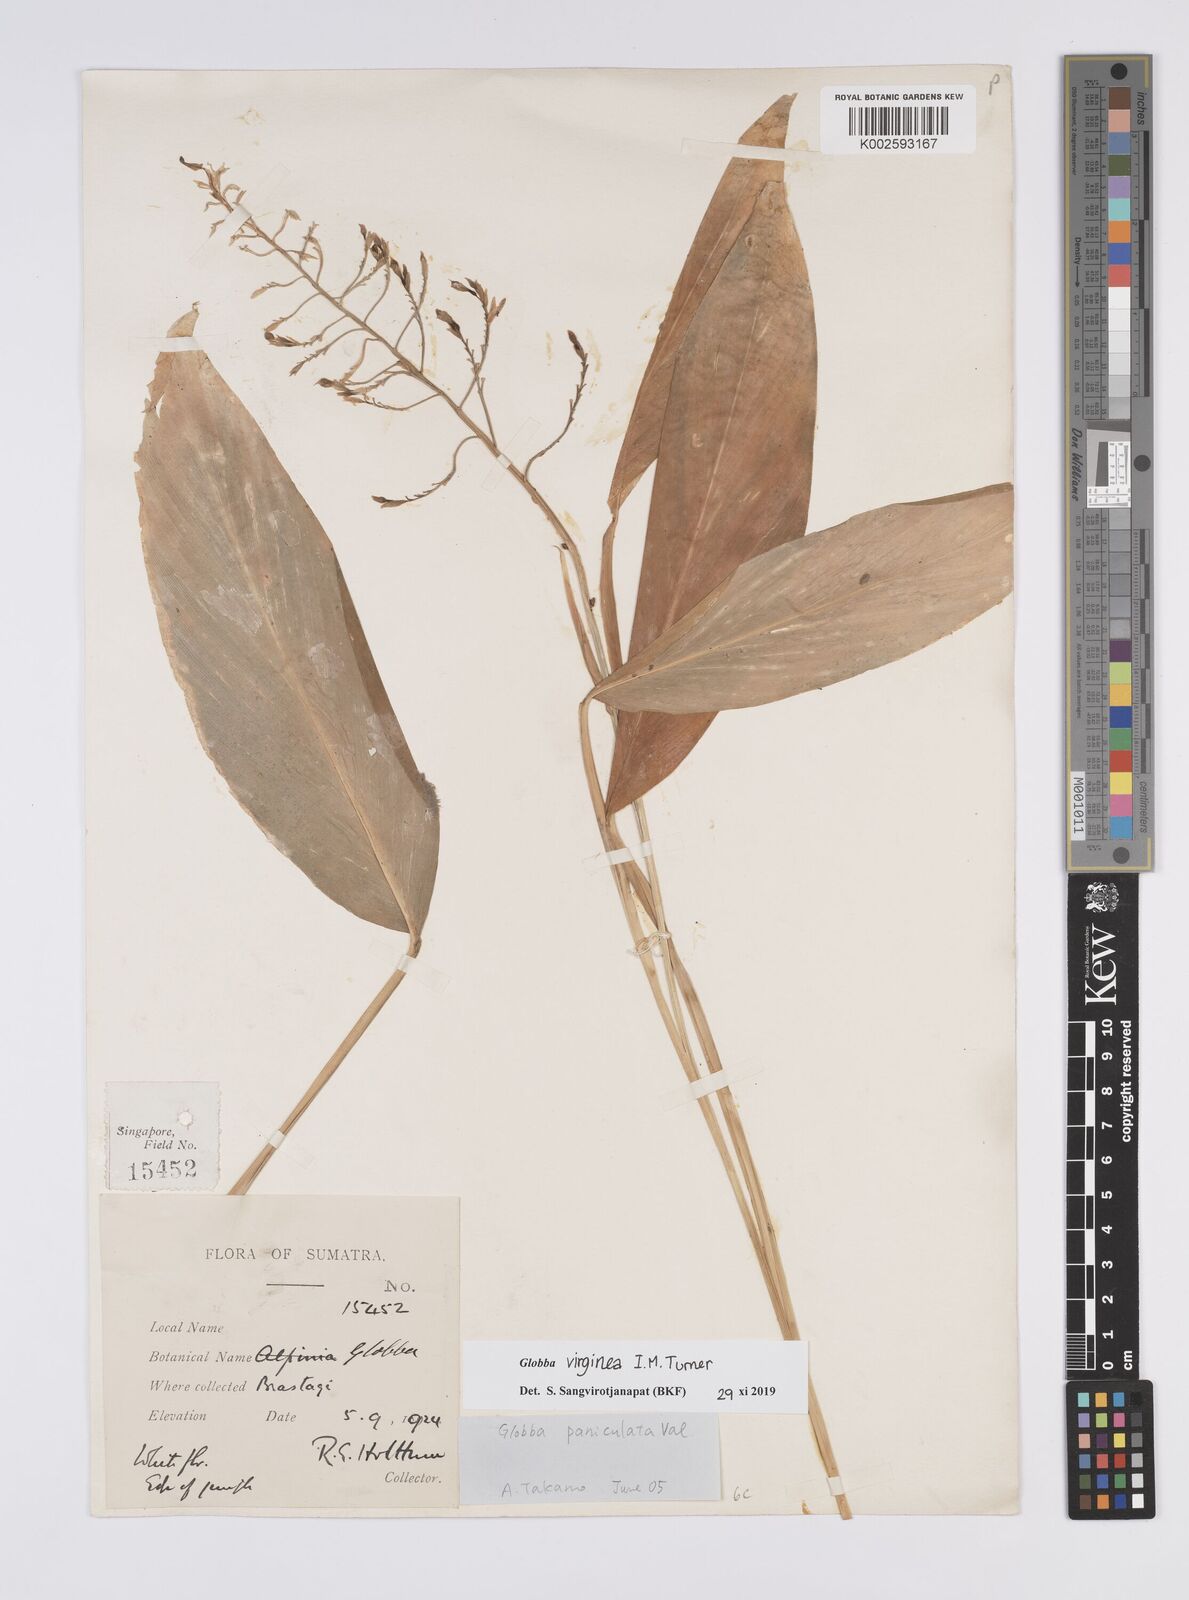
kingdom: Plantae
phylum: Tracheophyta
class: Liliopsida
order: Zingiberales
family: Zingiberaceae
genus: Globba
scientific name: Globba virginea
